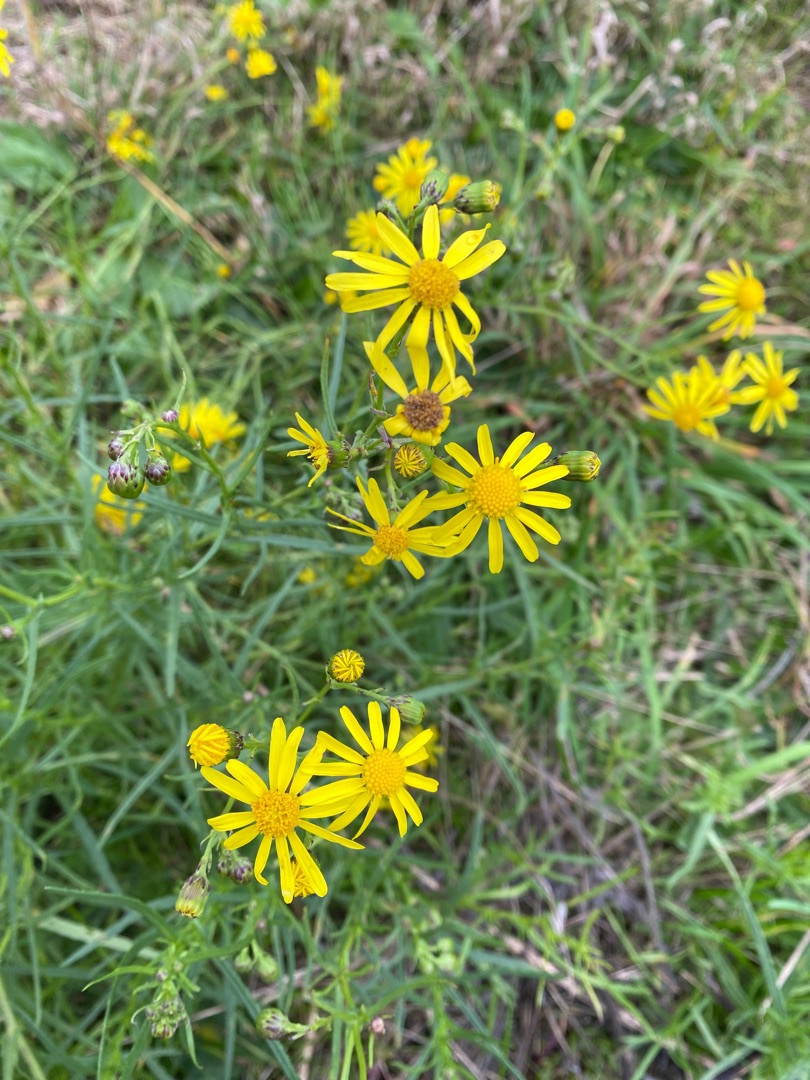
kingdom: Plantae
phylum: Tracheophyta
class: Magnoliopsida
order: Asterales
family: Asteraceae
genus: Senecio
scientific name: Senecio inaequidens
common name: Smalbladet brandbæger
